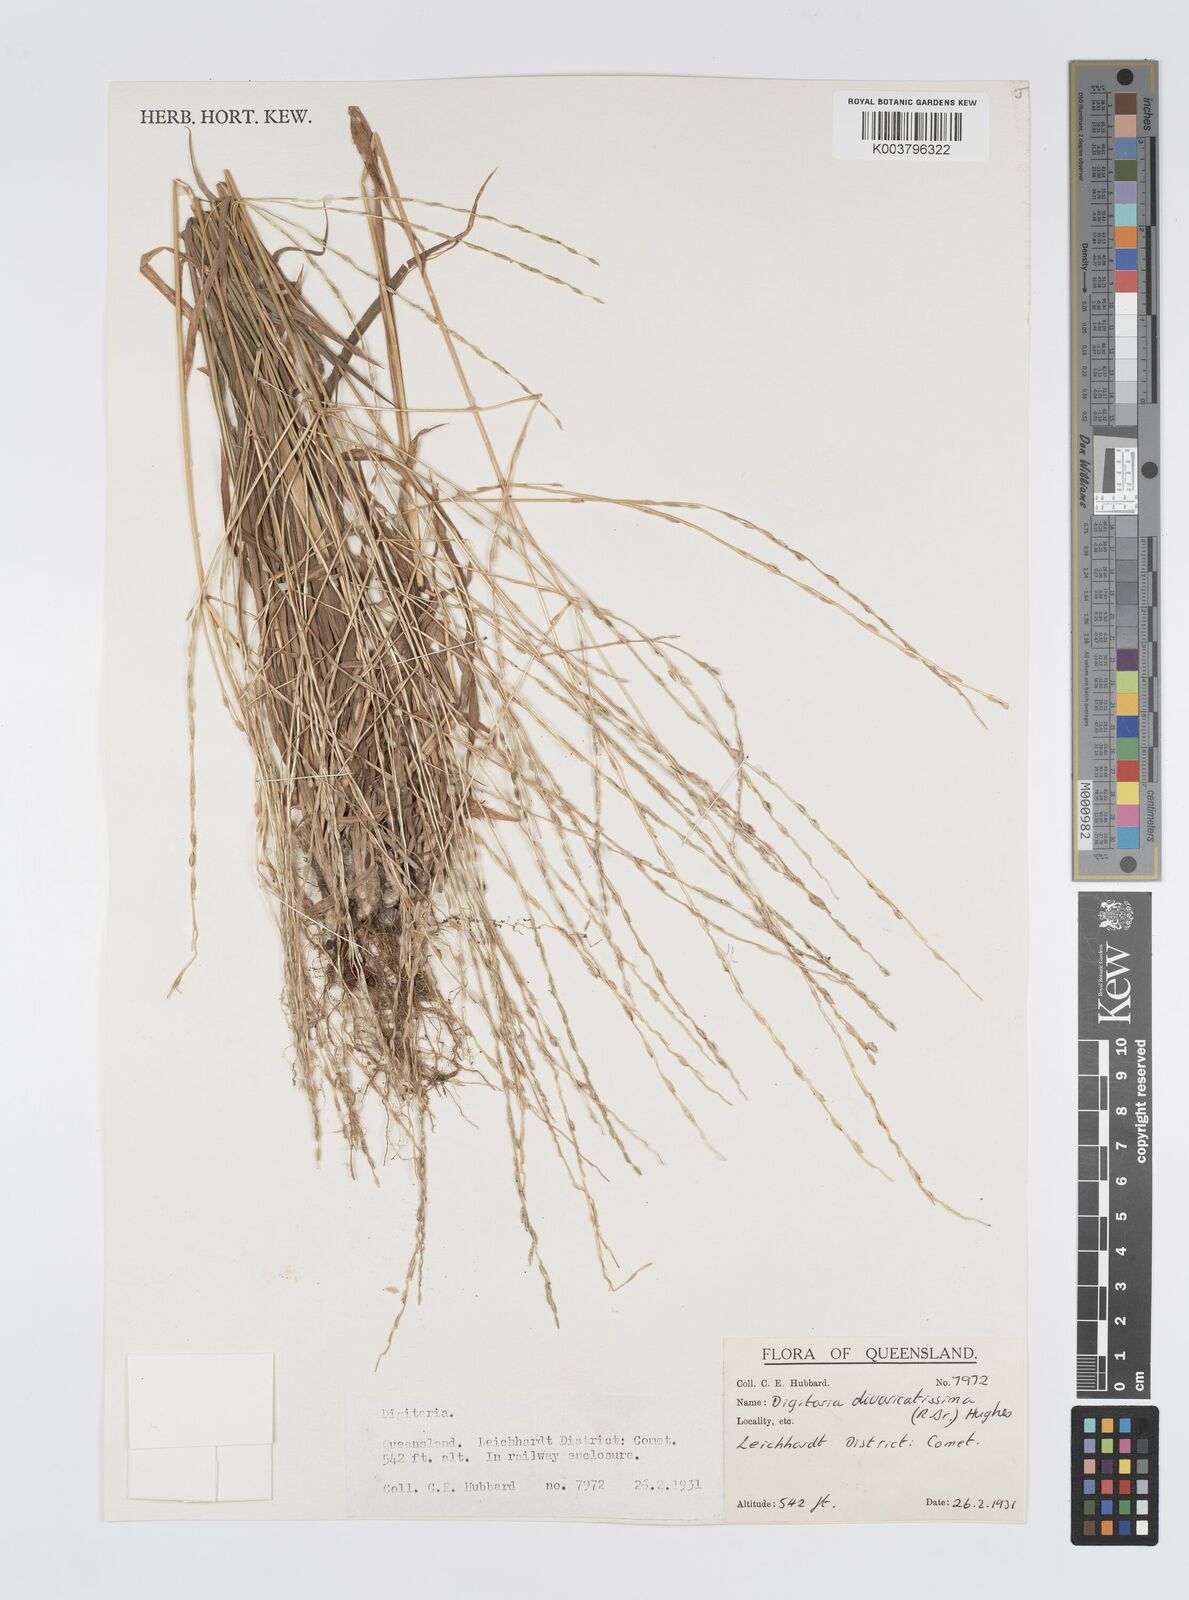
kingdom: Plantae
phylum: Tracheophyta
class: Liliopsida
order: Poales
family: Poaceae
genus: Digitaria
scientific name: Digitaria divaricatissima
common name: Crabgrass
